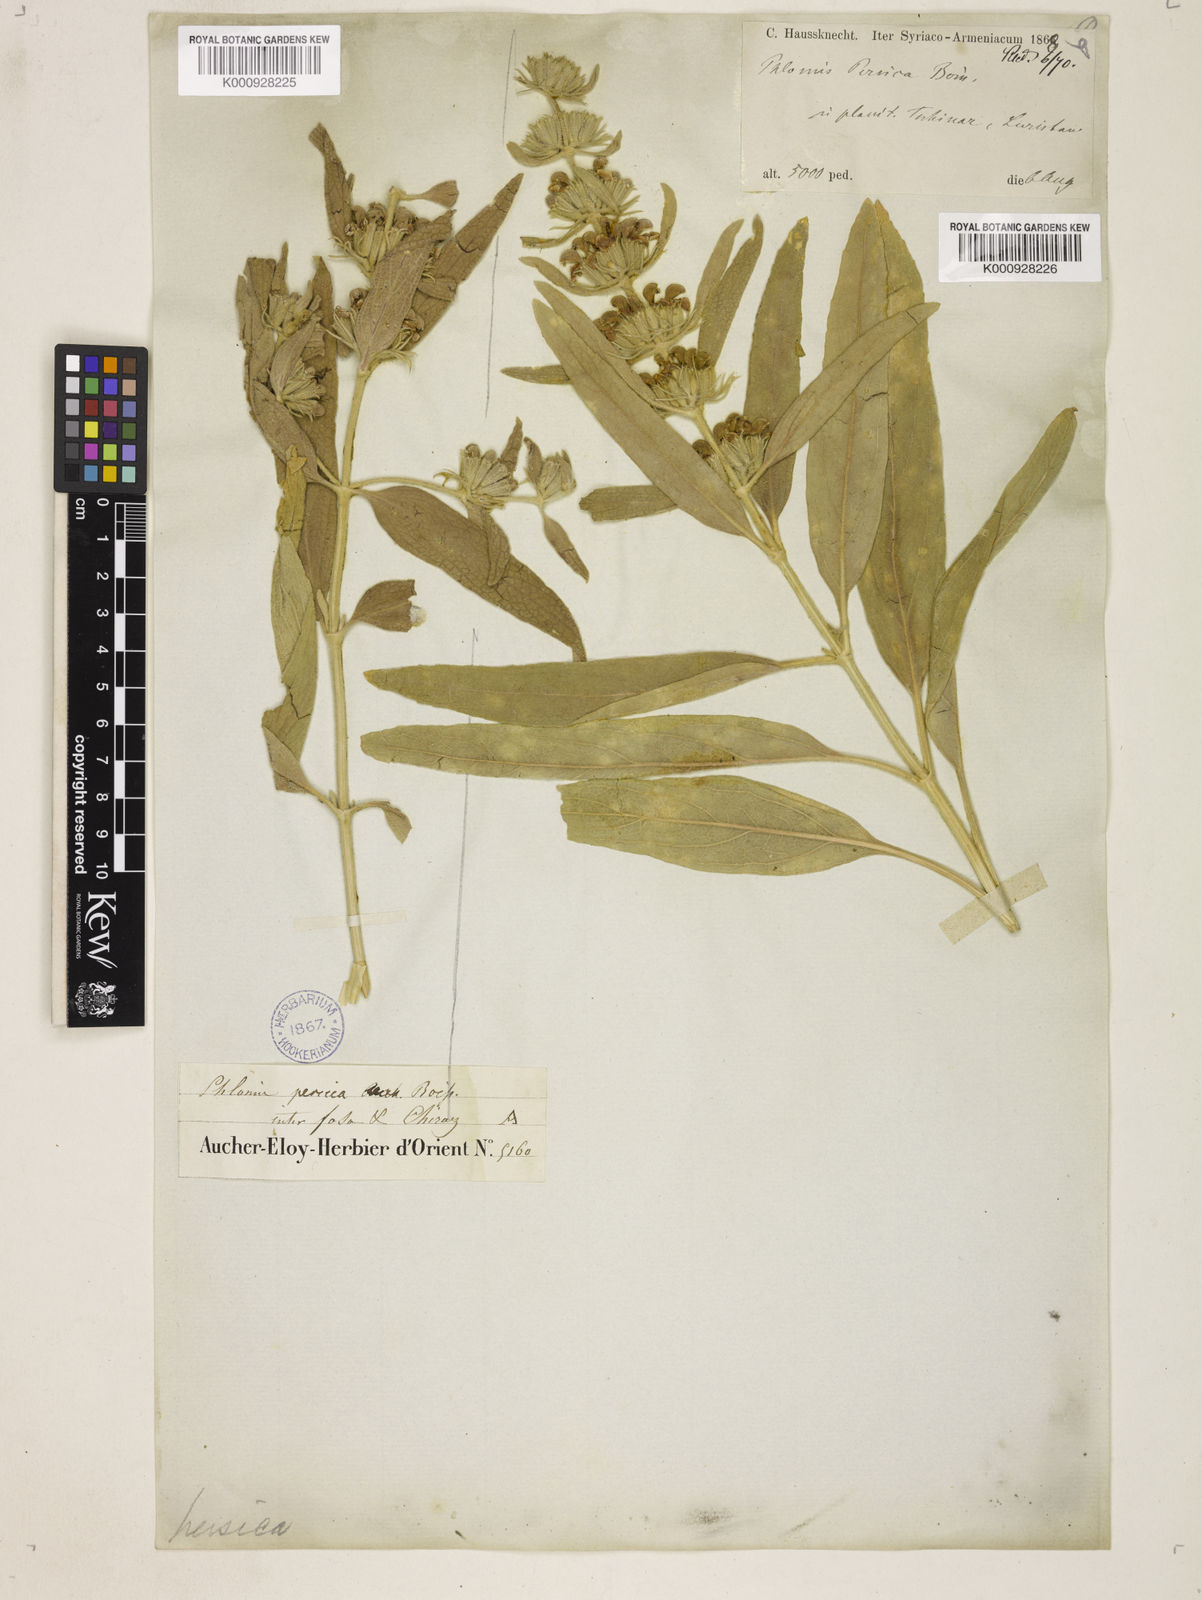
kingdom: Plantae
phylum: Tracheophyta
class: Magnoliopsida
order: Lamiales
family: Lamiaceae
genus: Phlomis
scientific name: Phlomis persica
